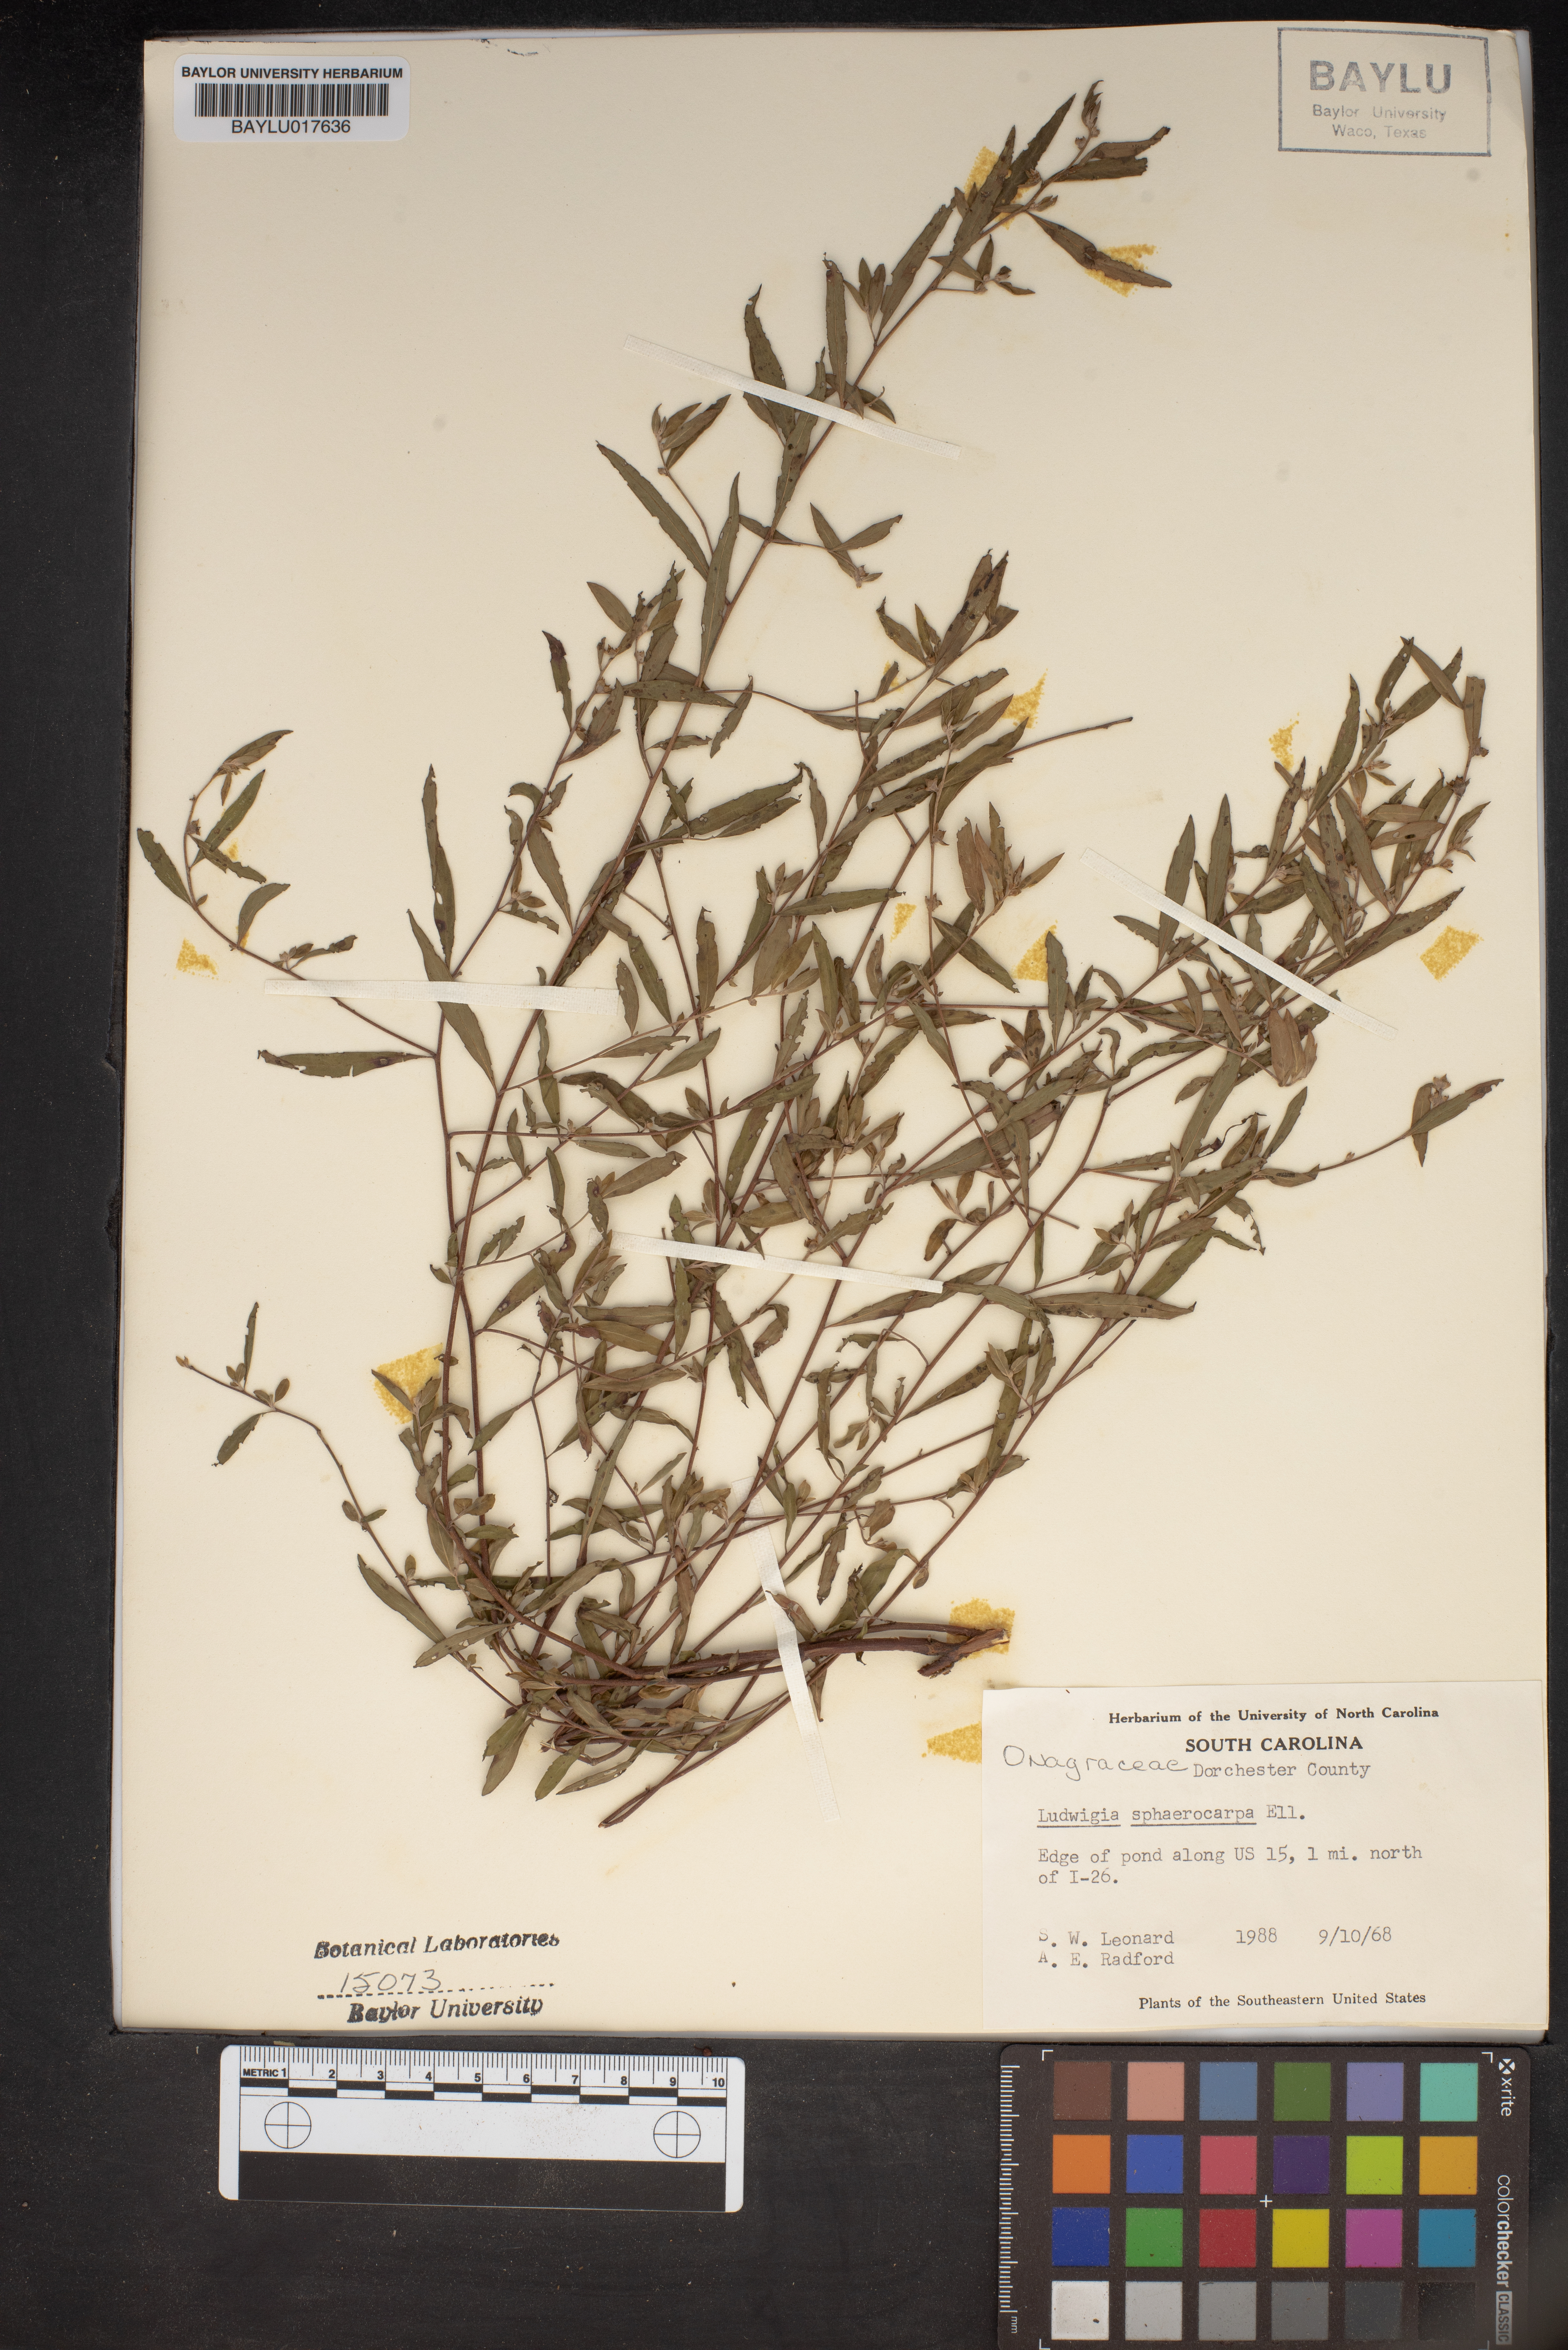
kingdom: Plantae
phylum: Tracheophyta
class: Magnoliopsida
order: Myrtales
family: Onagraceae
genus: Ludwigia
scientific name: Ludwigia sphaerocarpa
